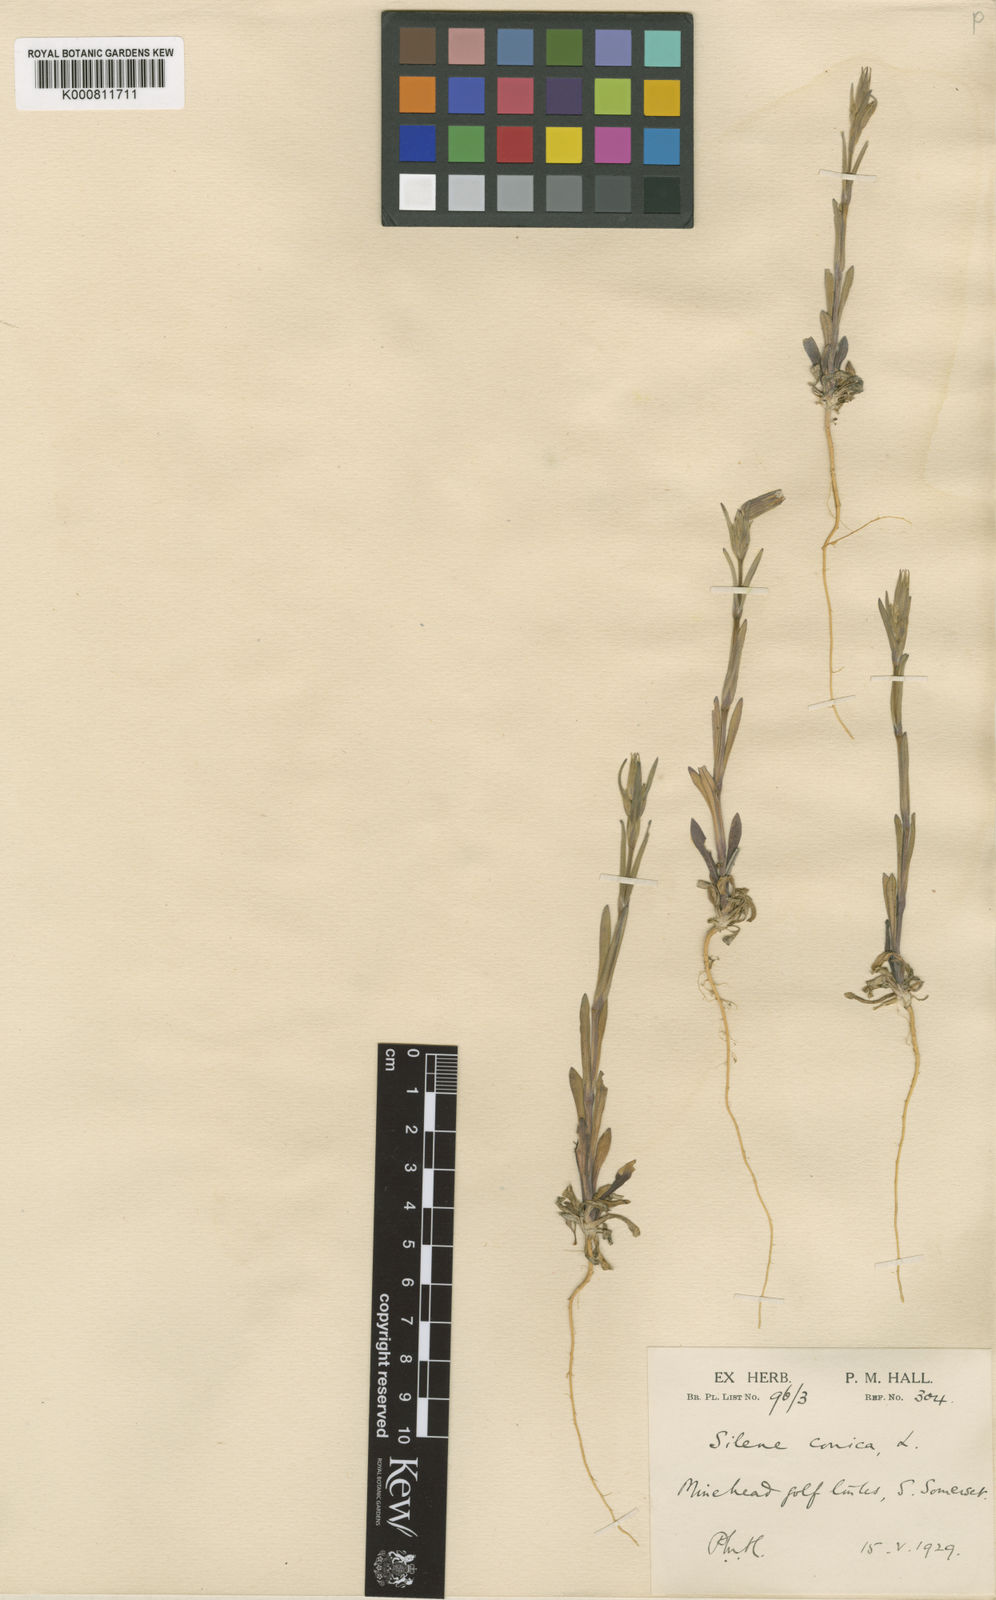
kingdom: Plantae
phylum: Tracheophyta
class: Magnoliopsida
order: Caryophyllales
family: Caryophyllaceae
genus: Silene
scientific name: Silene conica
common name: Sand catchfly
